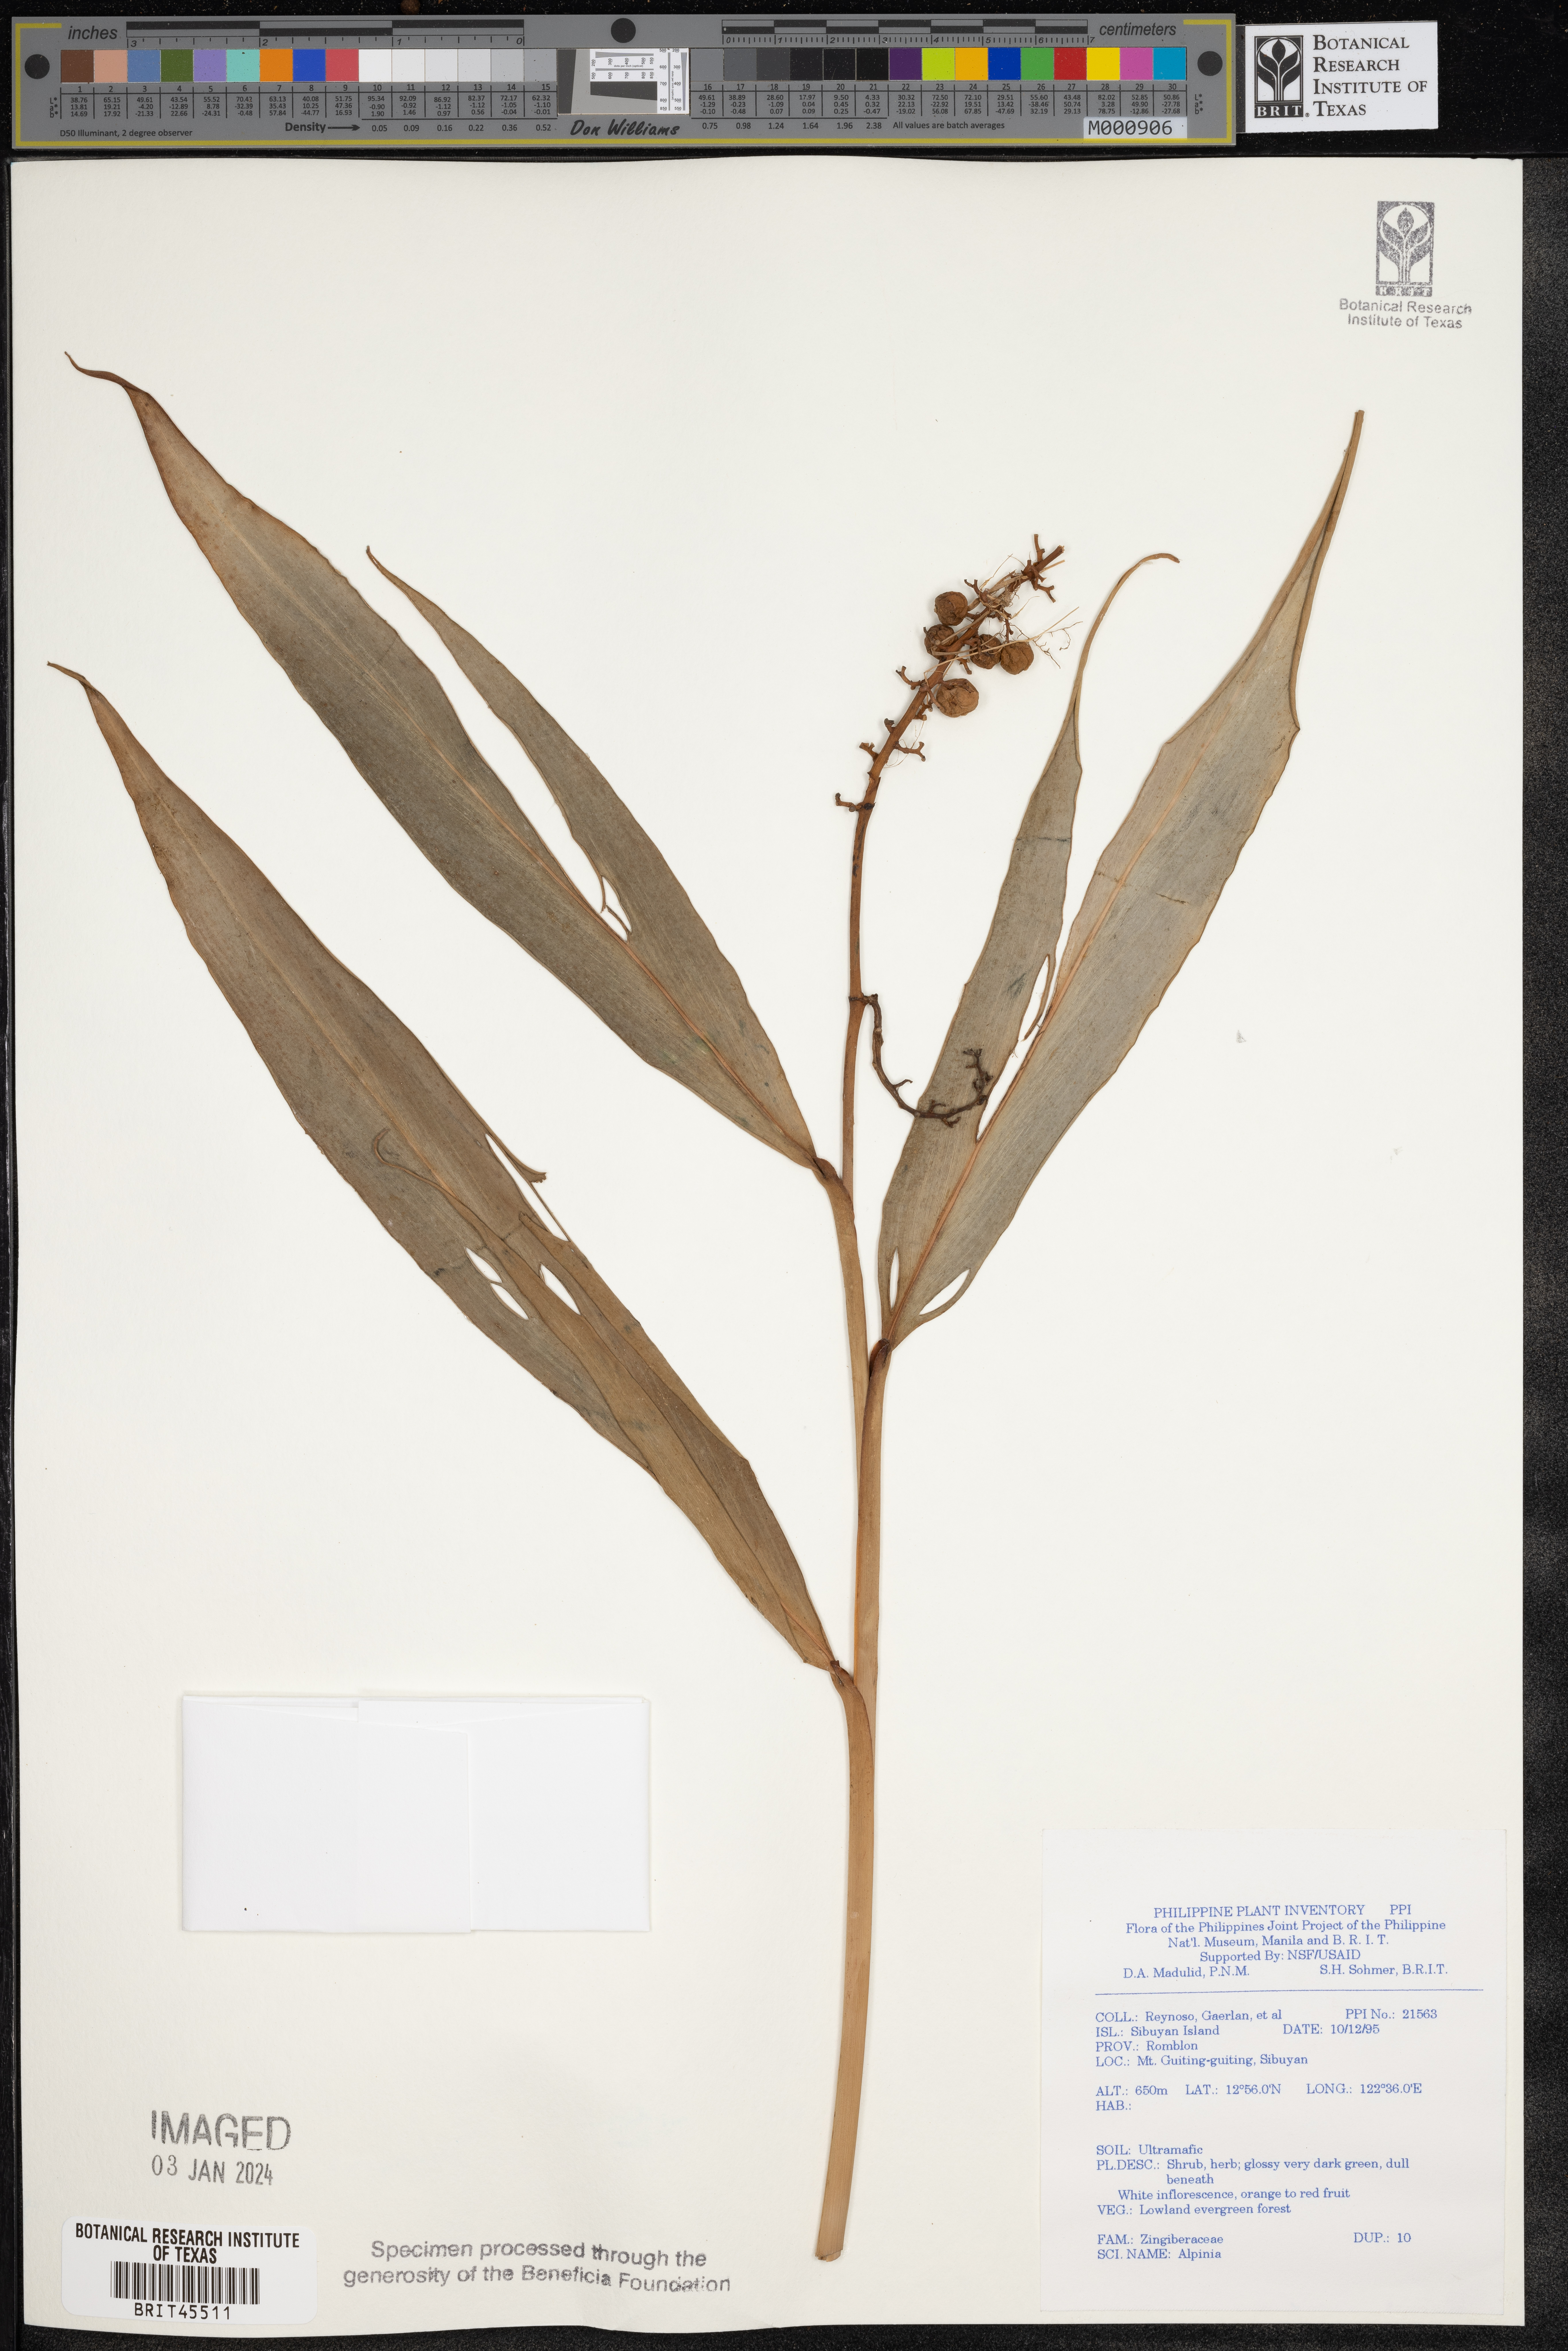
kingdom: Plantae
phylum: Tracheophyta
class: Liliopsida
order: Zingiberales
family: Zingiberaceae
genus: Alpinia
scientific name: Alpinia
